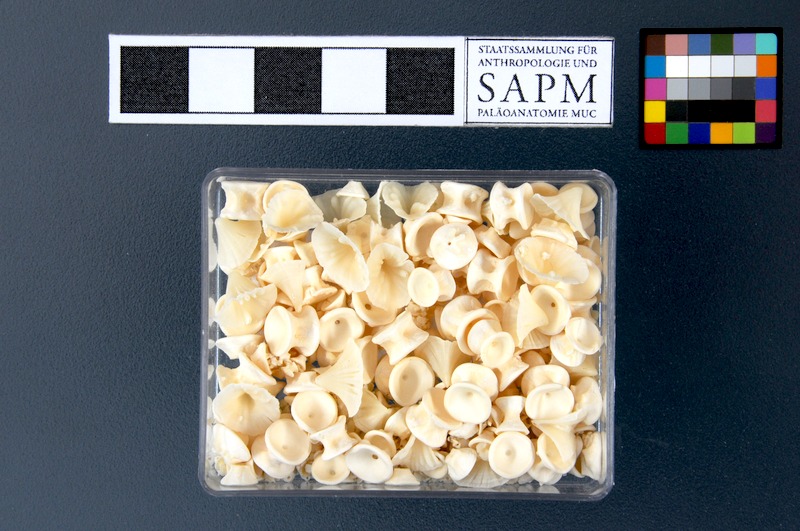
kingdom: Animalia
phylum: Chordata
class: Elasmobranchii
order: Rajiformes
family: Rajidae
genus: Leucoraja
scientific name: Leucoraja circularis
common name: Sandy ray
